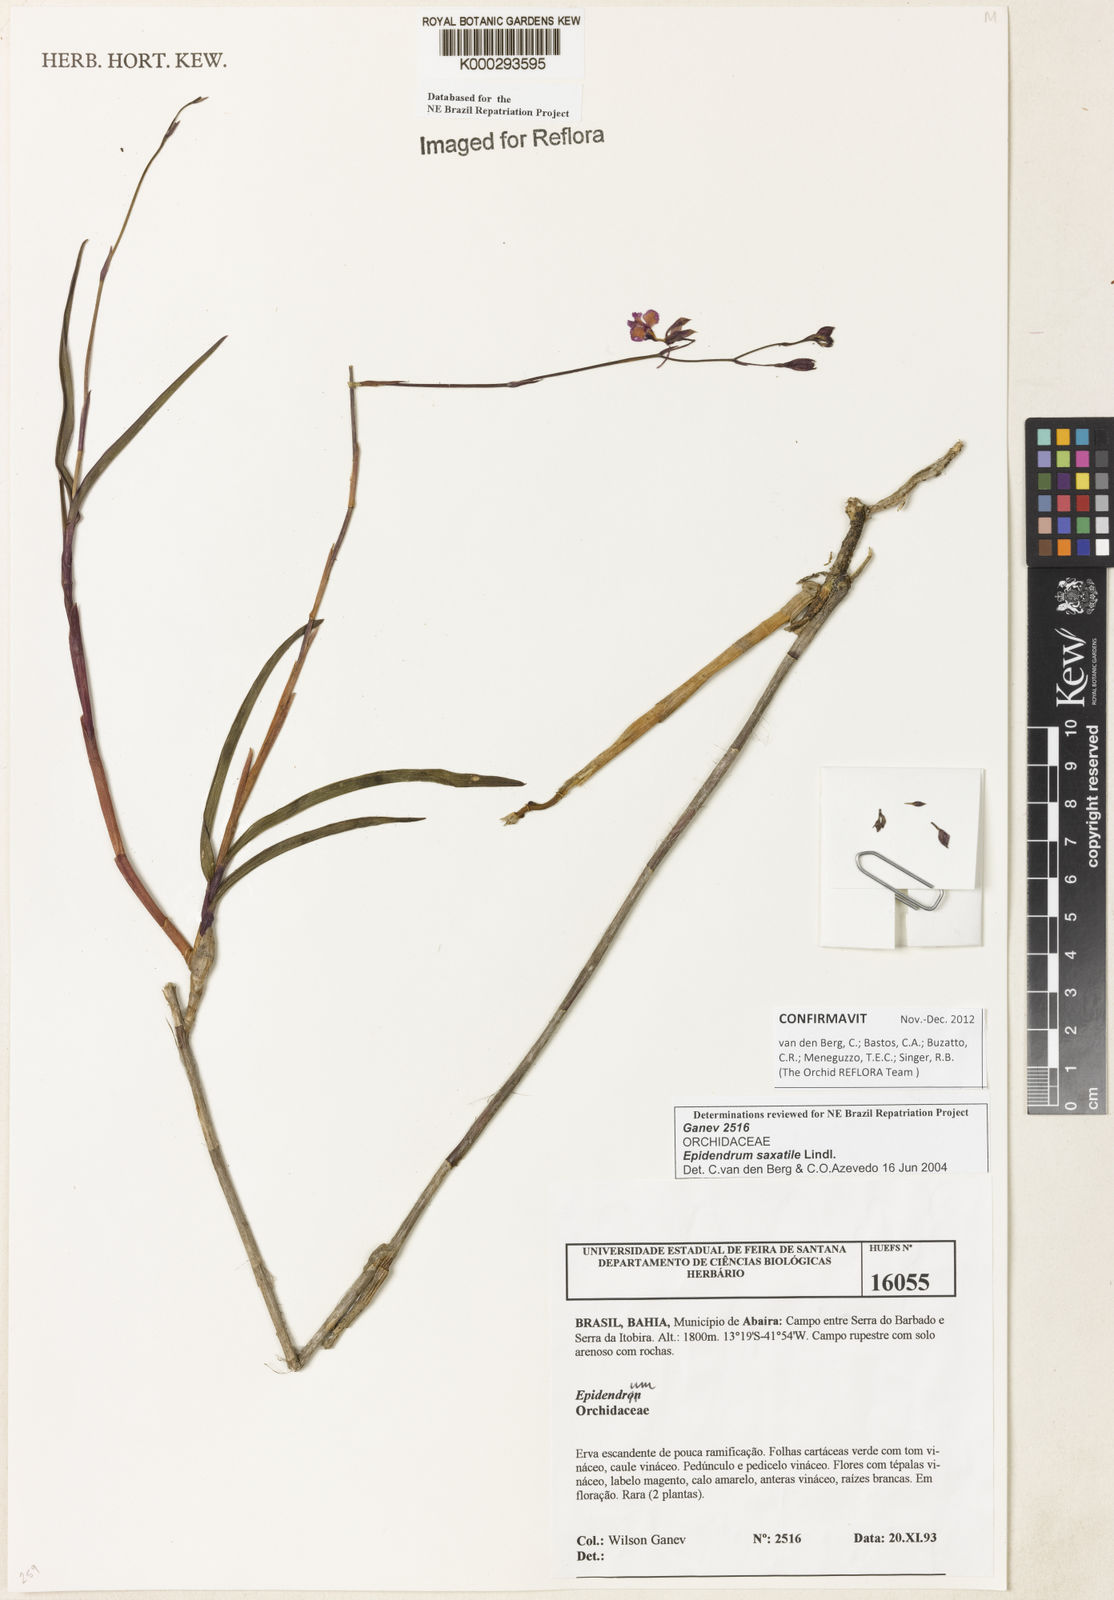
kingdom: Plantae
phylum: Tracheophyta
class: Liliopsida
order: Asparagales
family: Orchidaceae
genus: Epidendrum
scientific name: Epidendrum saxatile
